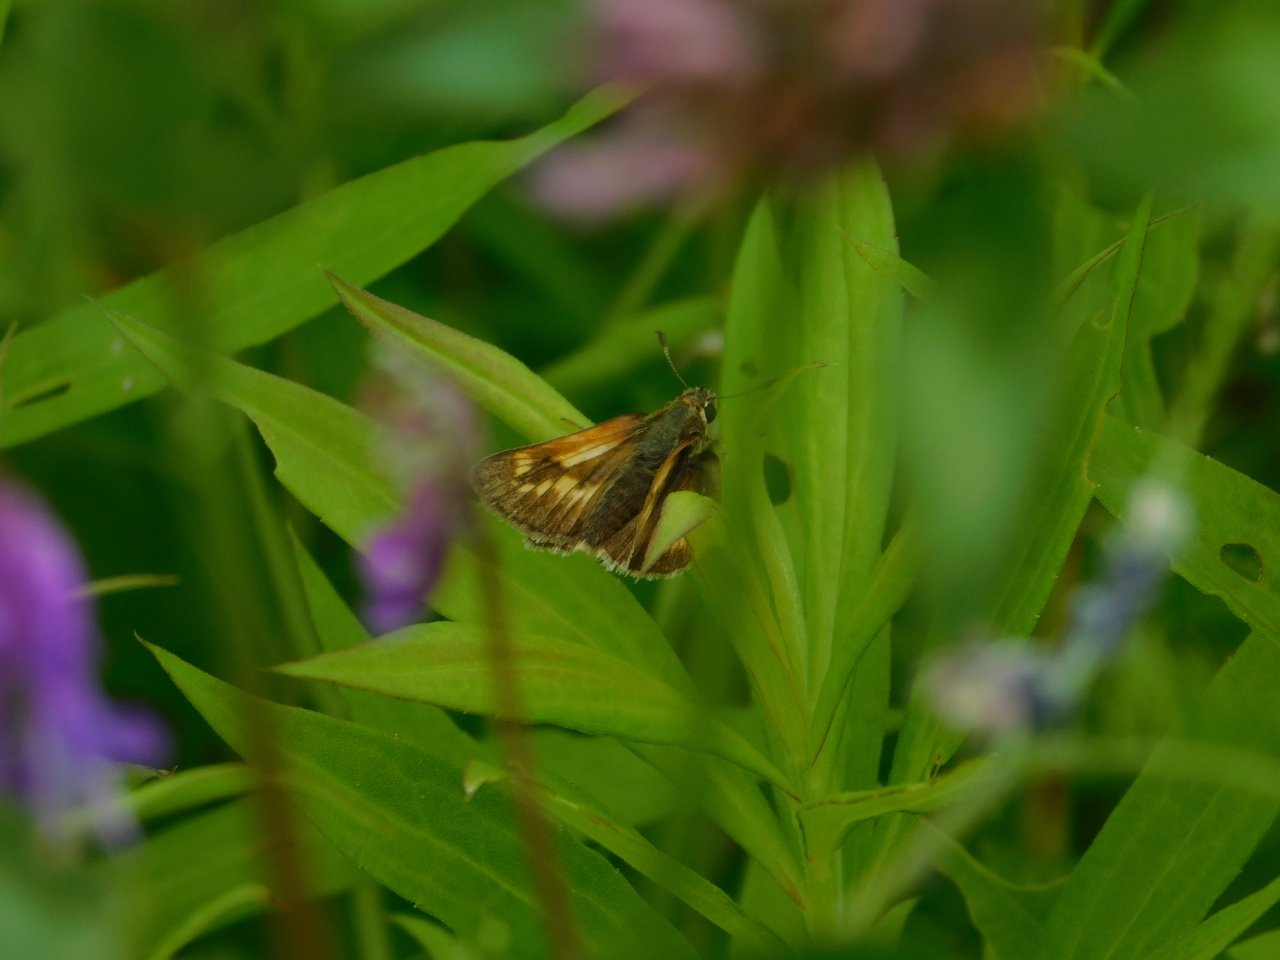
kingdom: Animalia
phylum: Arthropoda
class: Insecta
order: Lepidoptera
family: Hesperiidae
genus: Polites
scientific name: Polites
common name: Long Dash Skipper
